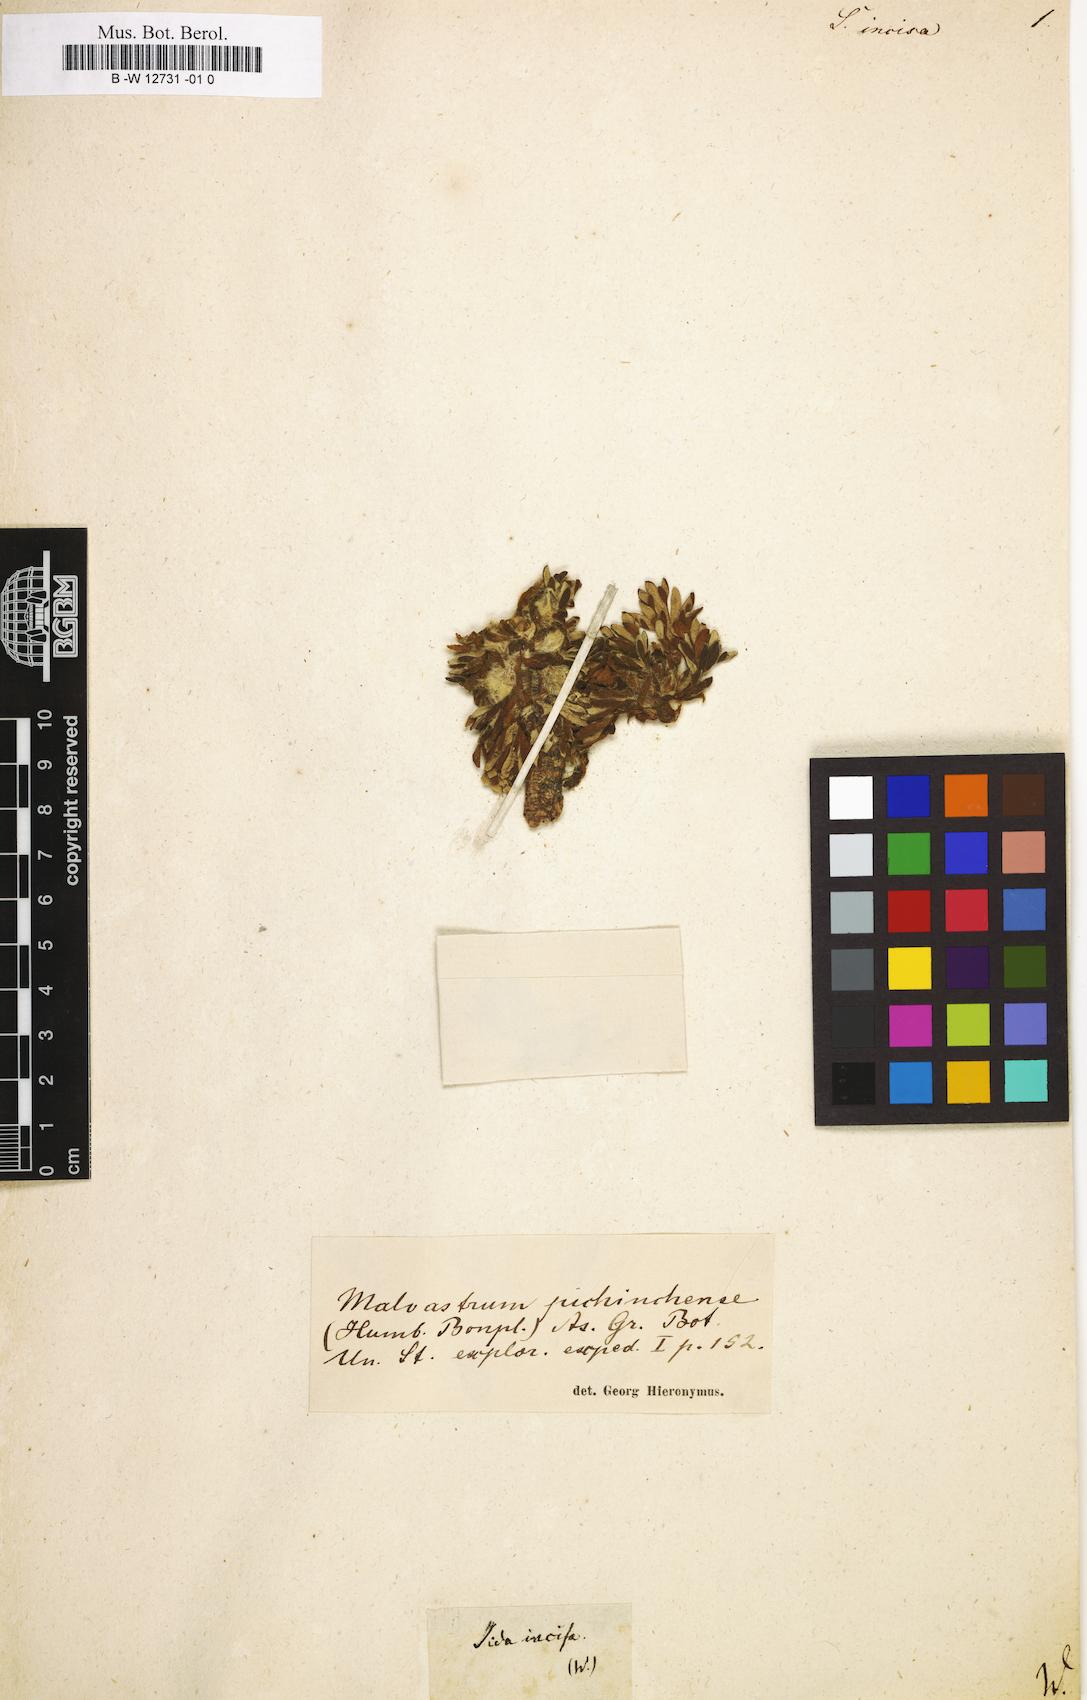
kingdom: Plantae
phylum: Tracheophyta
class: Magnoliopsida
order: Malvales
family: Malvaceae
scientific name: Malvaceae
